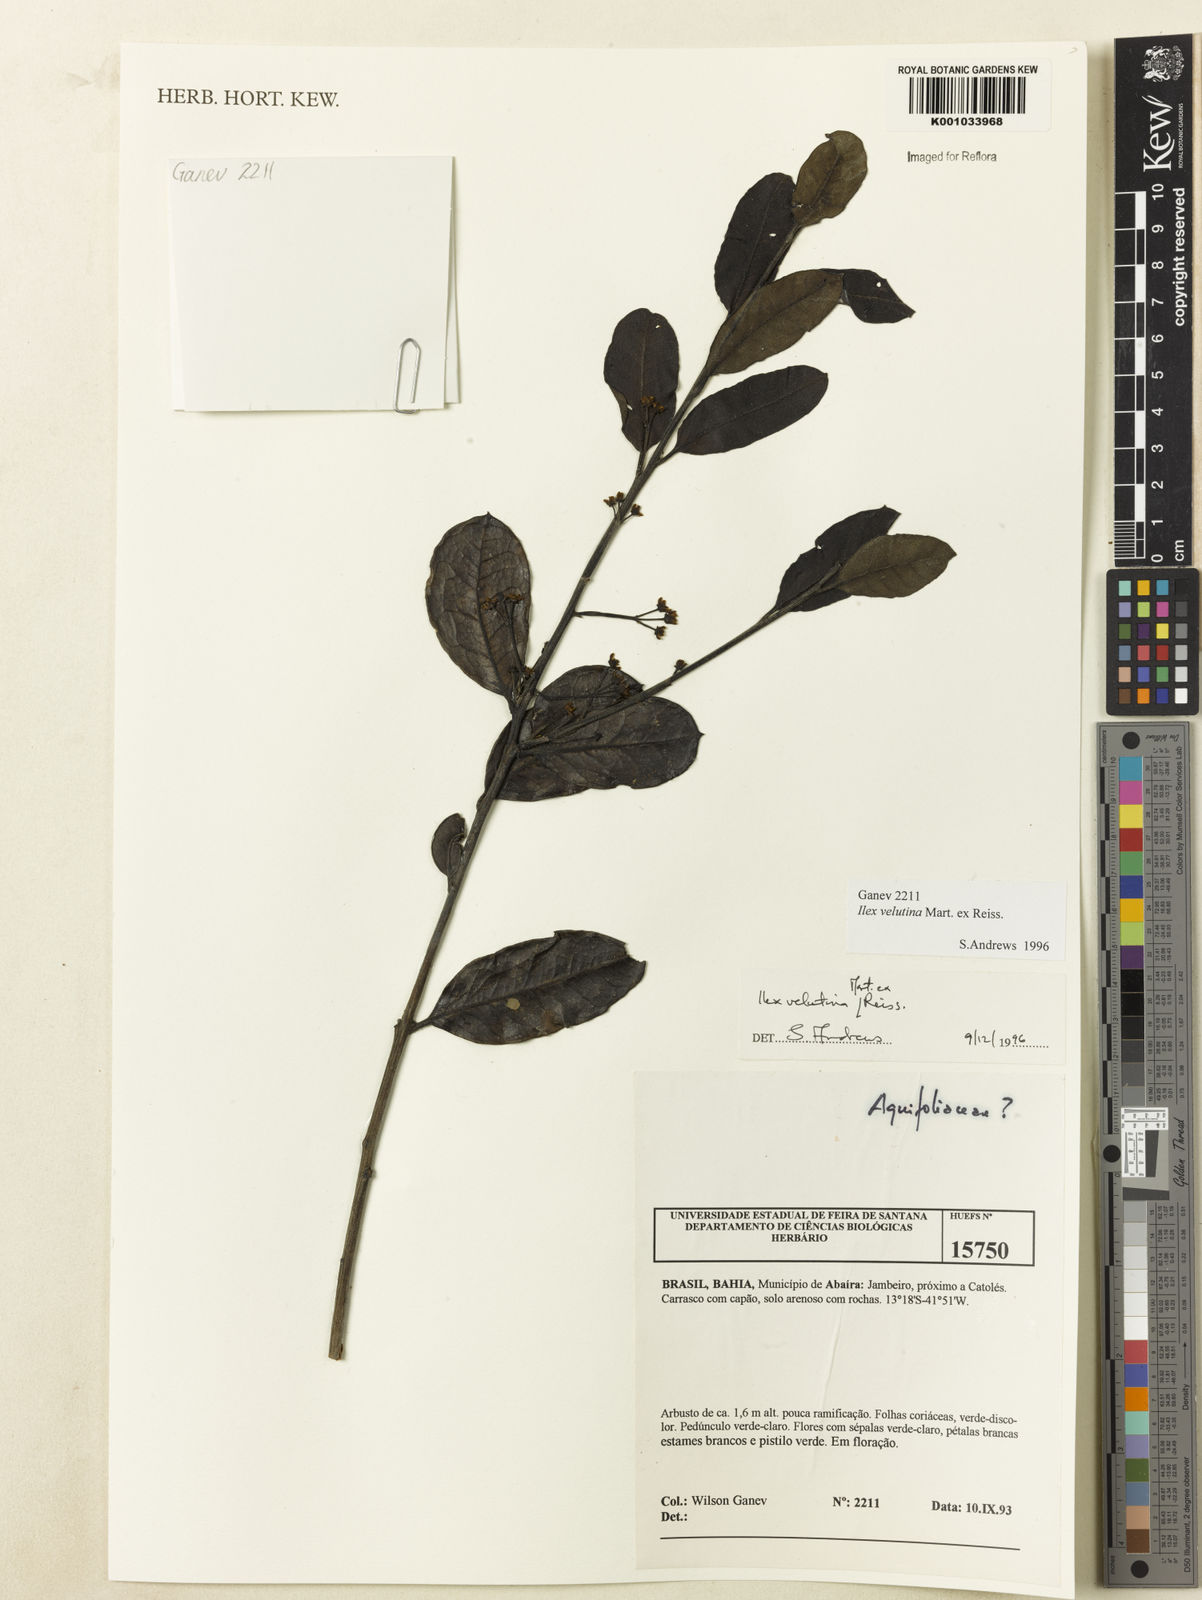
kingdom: Plantae
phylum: Tracheophyta
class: Magnoliopsida
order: Aquifoliales
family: Aquifoliaceae
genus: Ilex
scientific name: Ilex velutina
